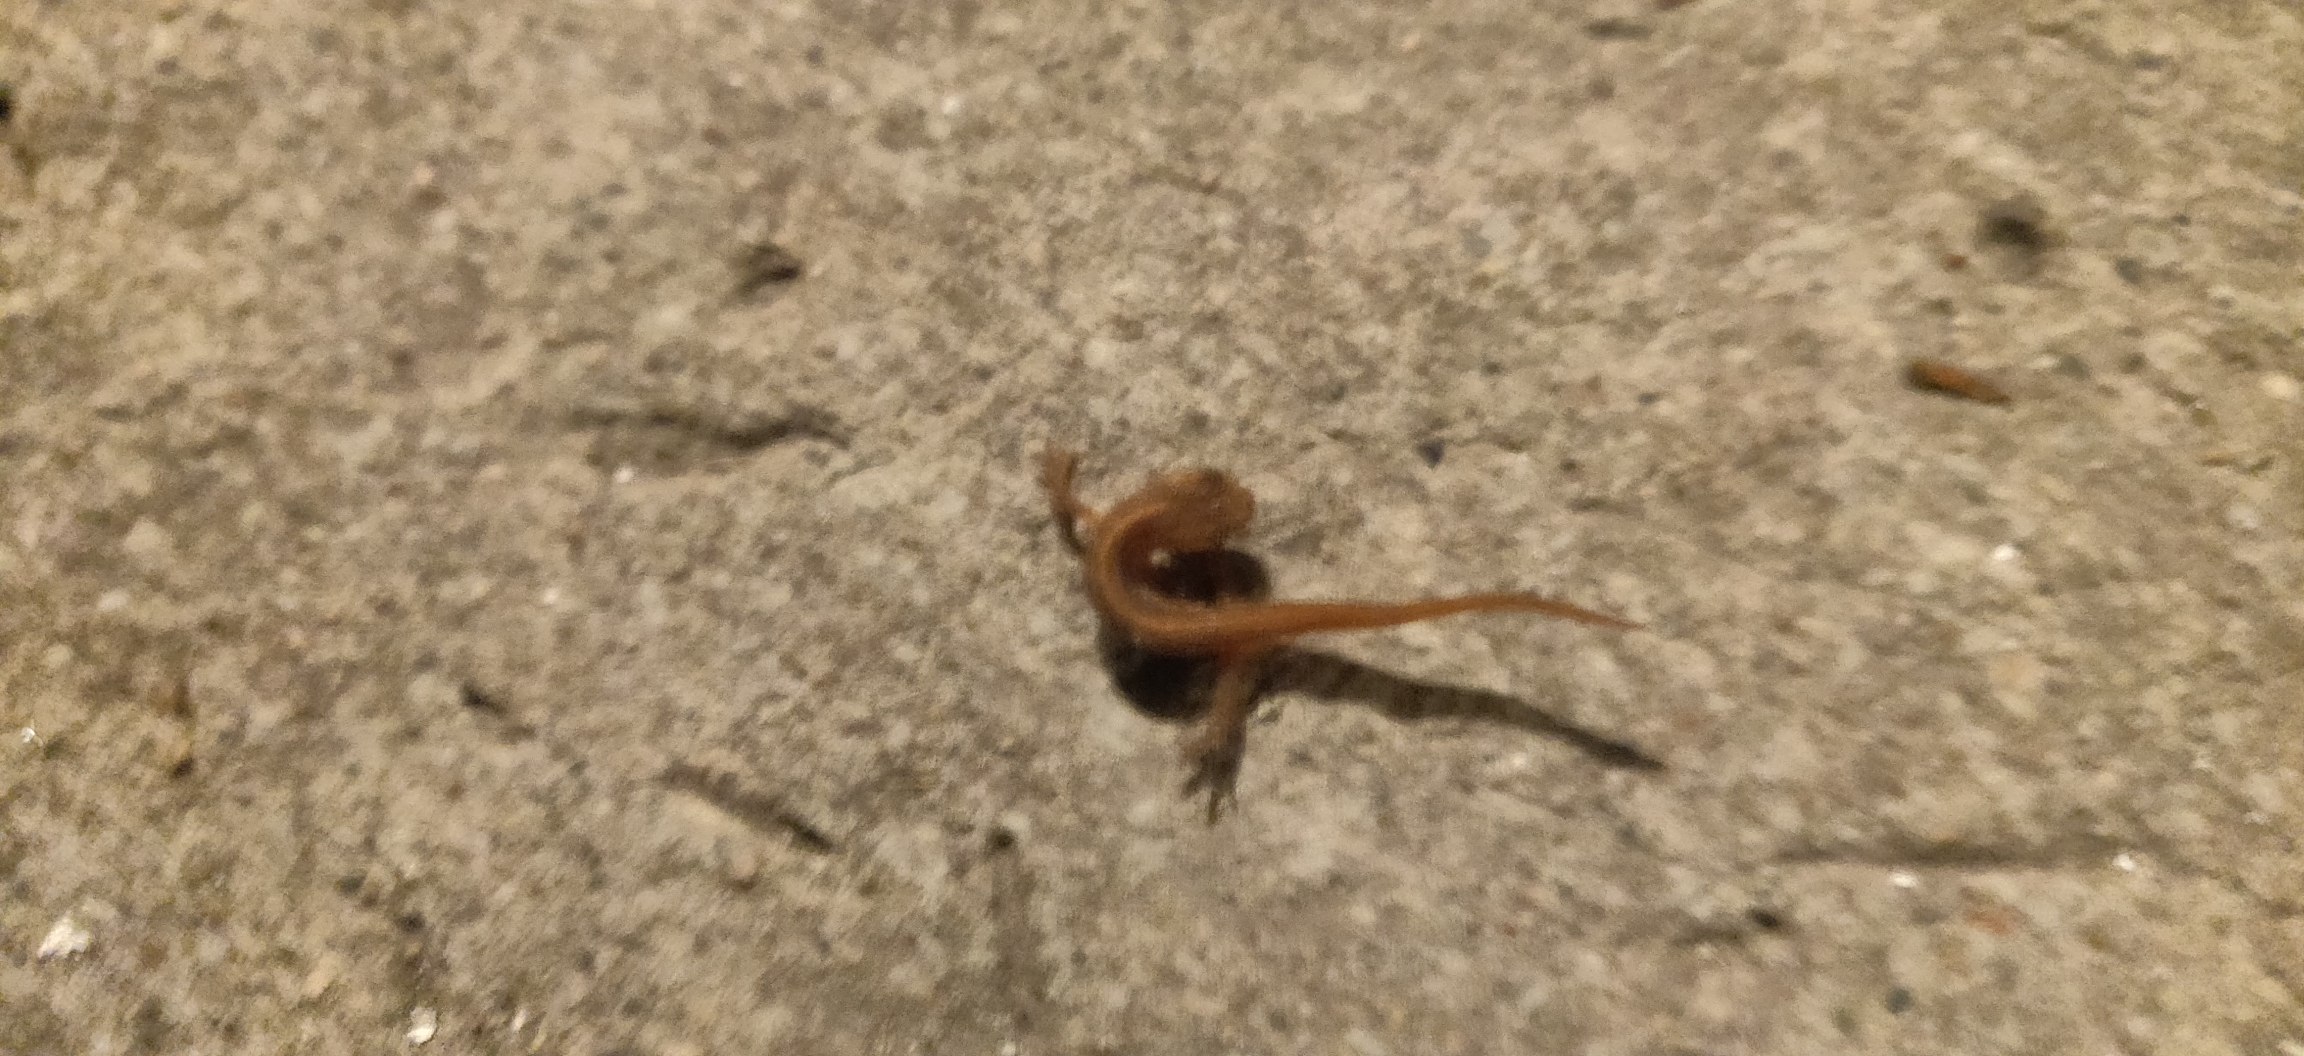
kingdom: Animalia
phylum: Chordata
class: Amphibia
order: Caudata
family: Salamandridae
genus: Lissotriton
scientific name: Lissotriton vulgaris
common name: Lille vandsalamander
